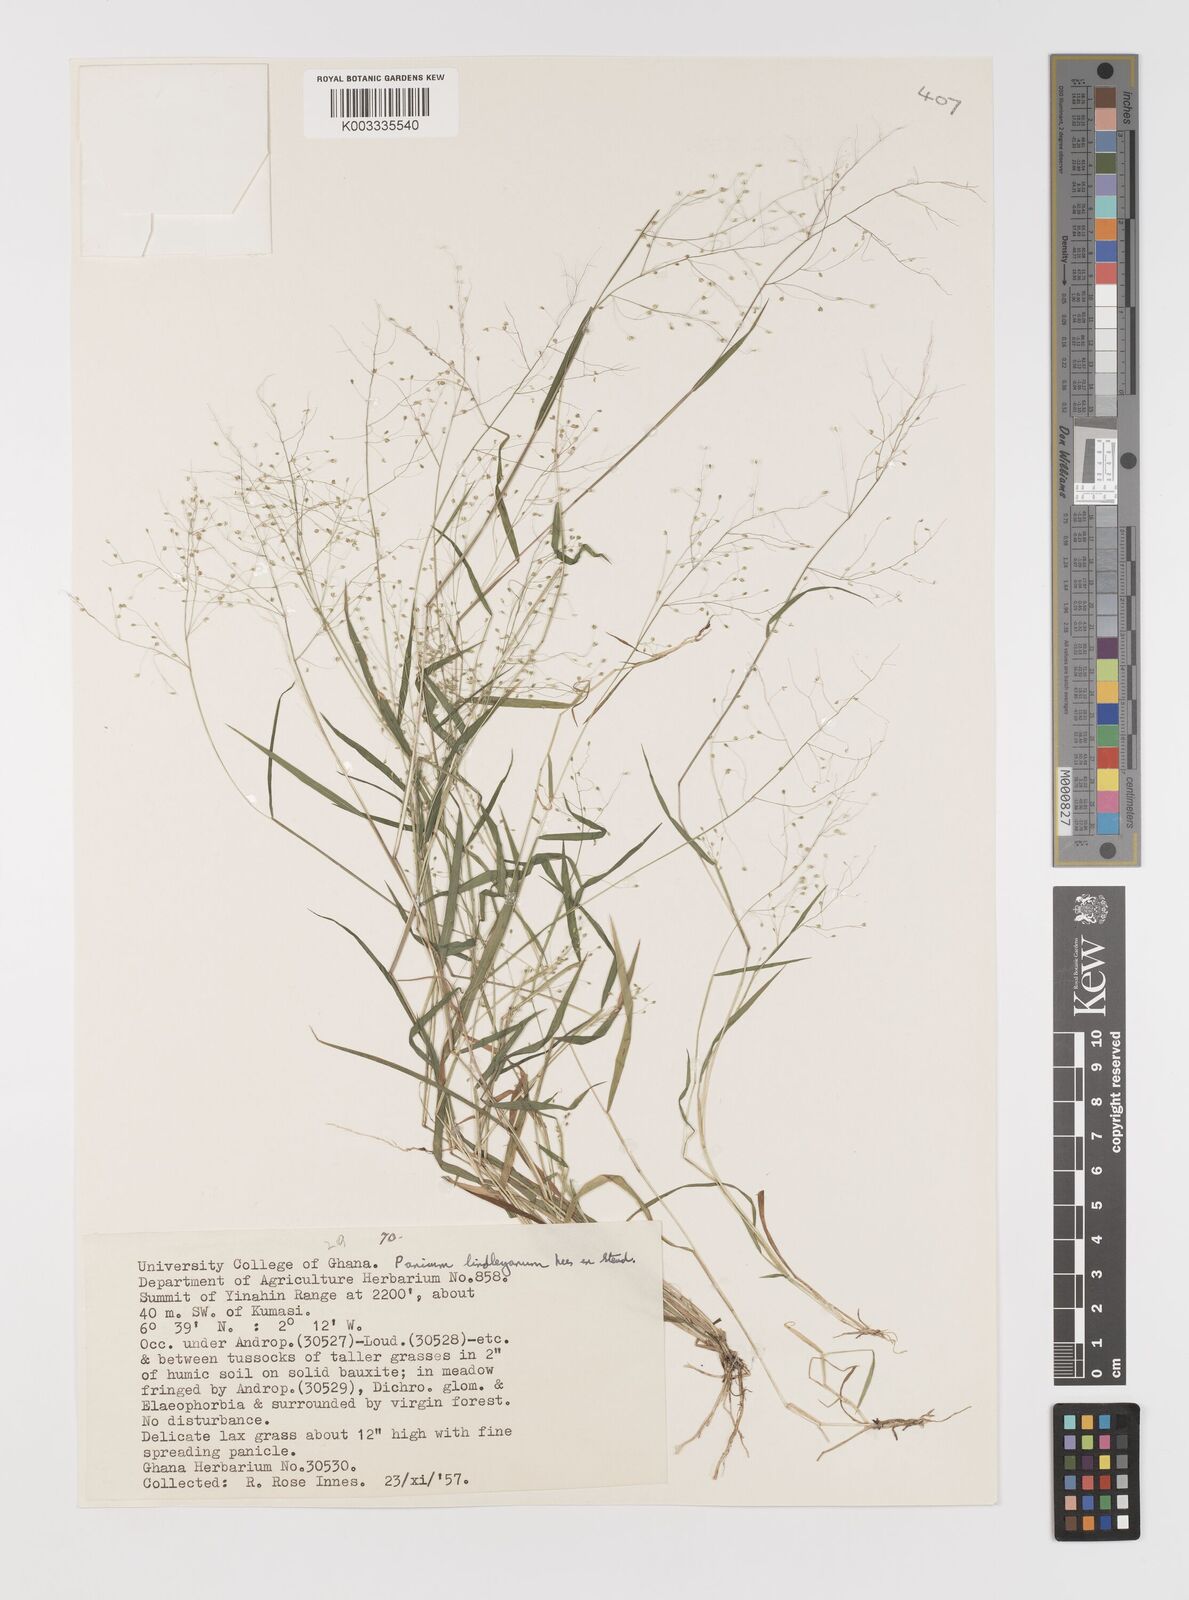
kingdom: Plantae
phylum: Tracheophyta
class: Liliopsida
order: Poales
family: Poaceae
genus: Trichanthecium
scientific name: Trichanthecium tenellum
